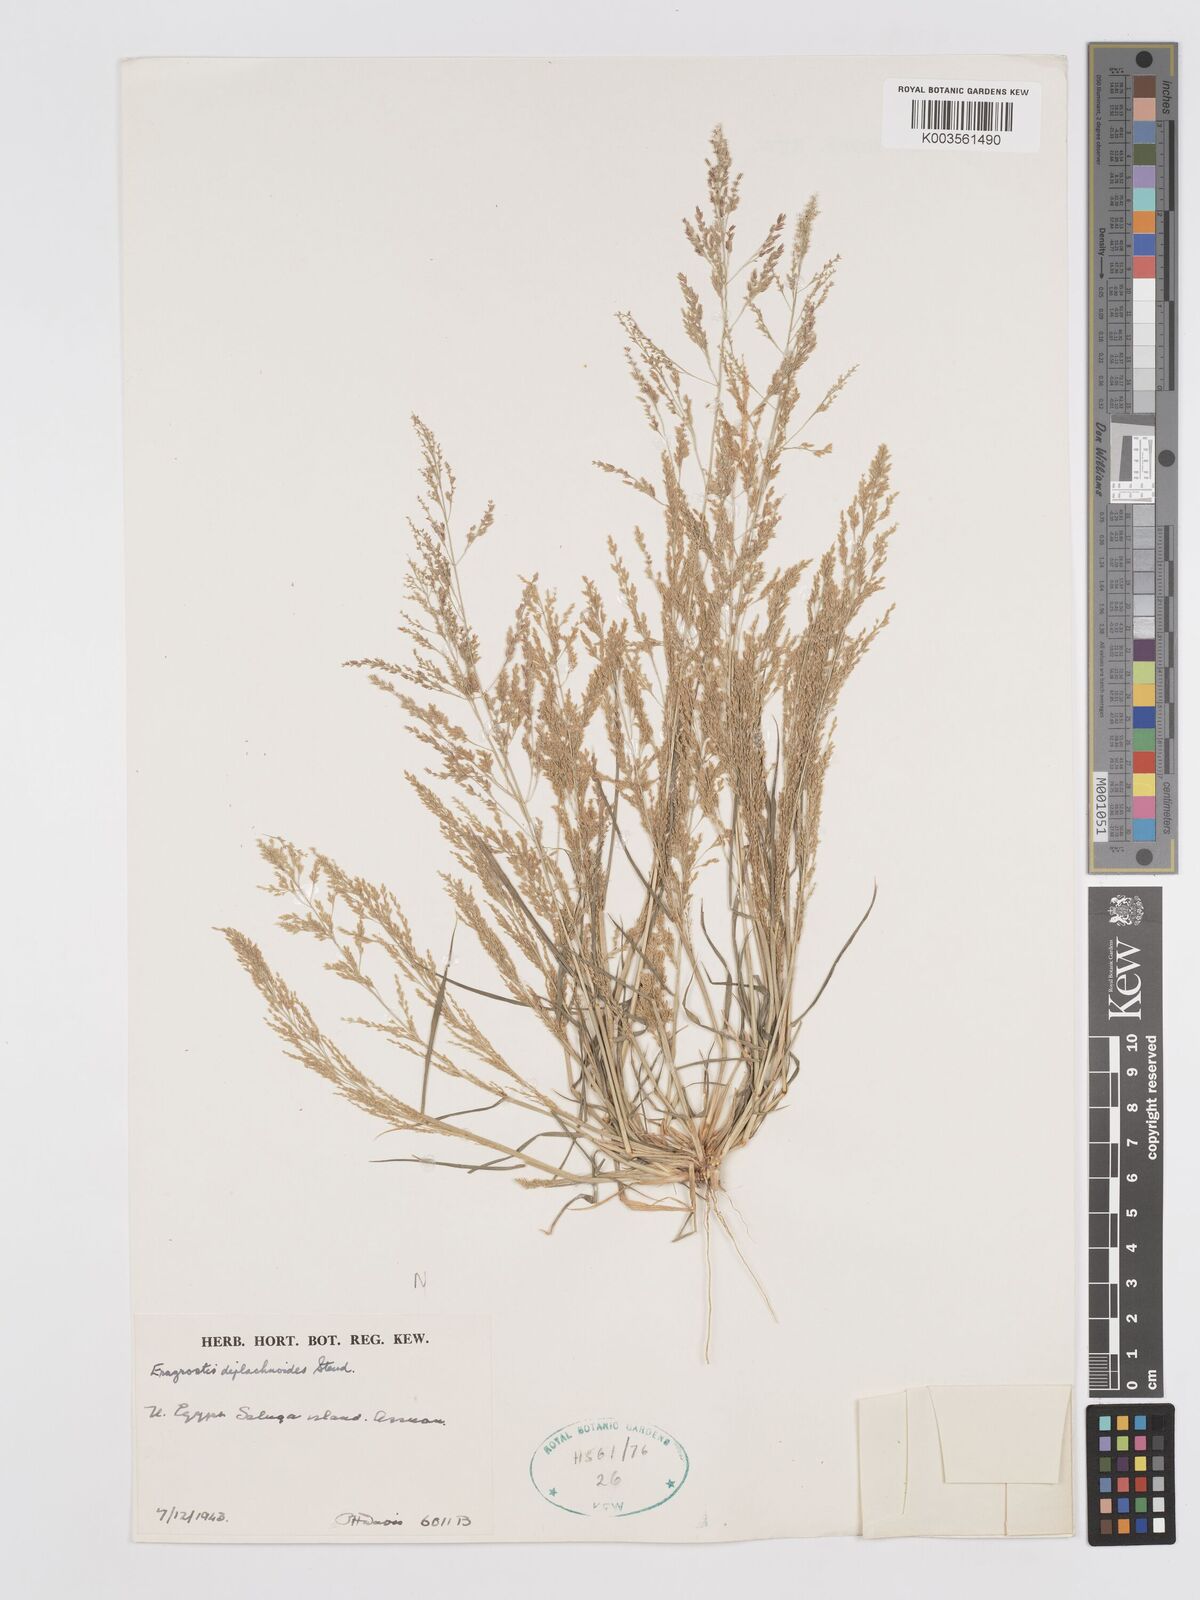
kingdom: Plantae
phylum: Tracheophyta
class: Liliopsida
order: Poales
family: Poaceae
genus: Eragrostis
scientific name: Eragrostis japonica
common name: Pond lovegrass
